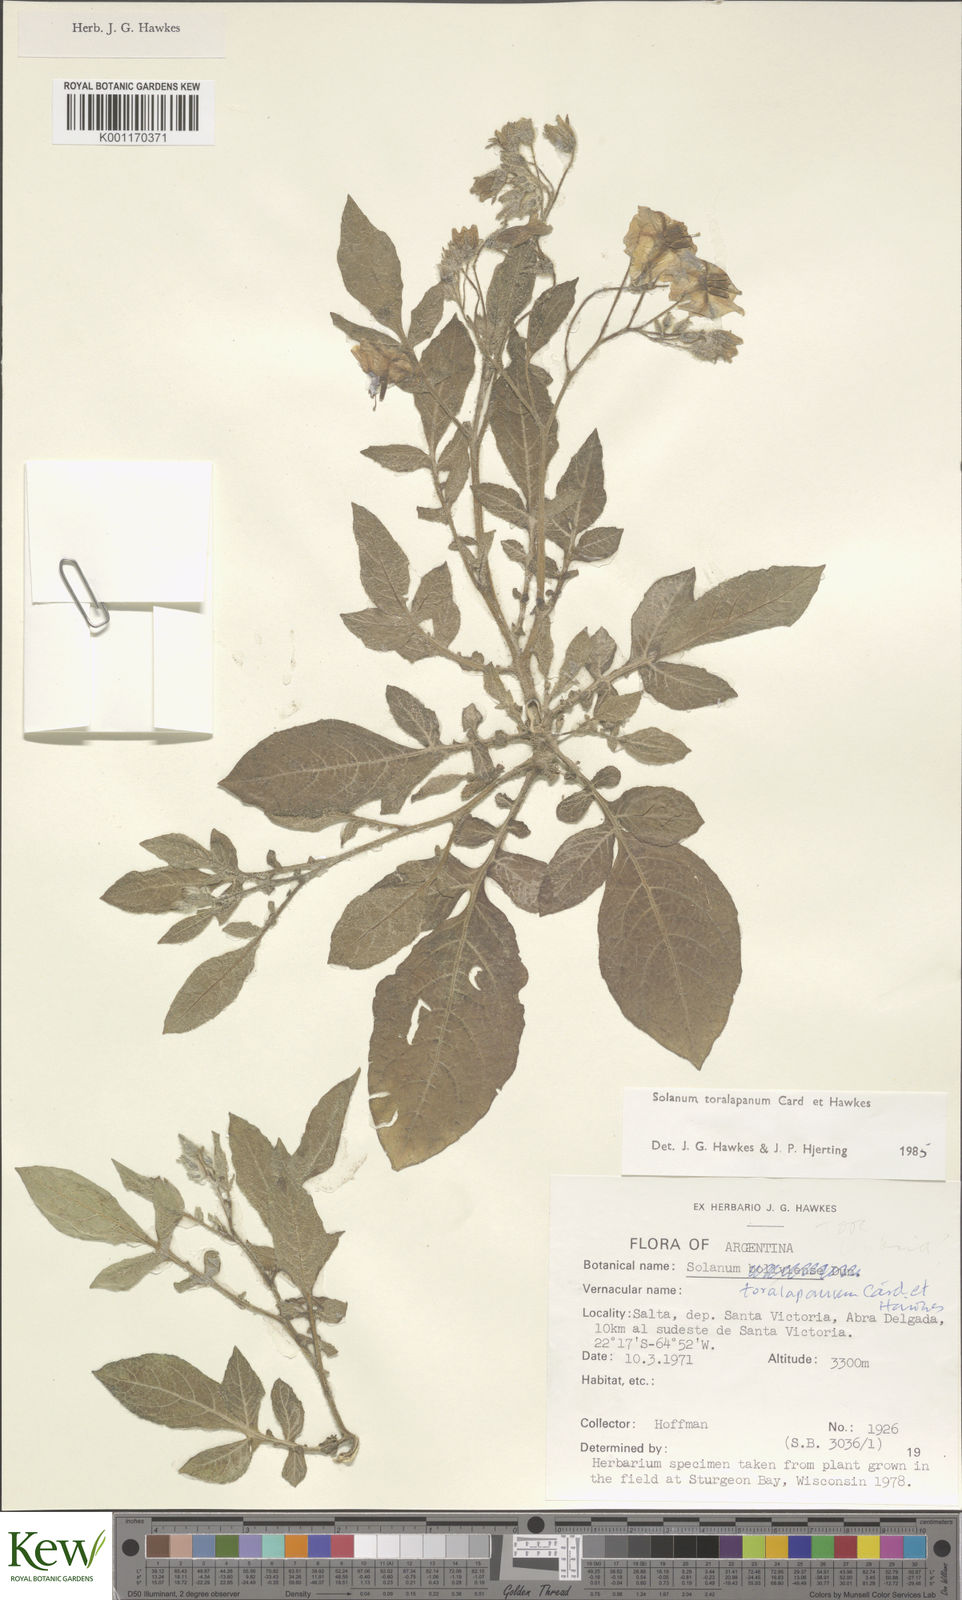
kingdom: Plantae
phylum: Tracheophyta
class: Magnoliopsida
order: Solanales
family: Solanaceae
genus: Solanum
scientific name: Solanum
